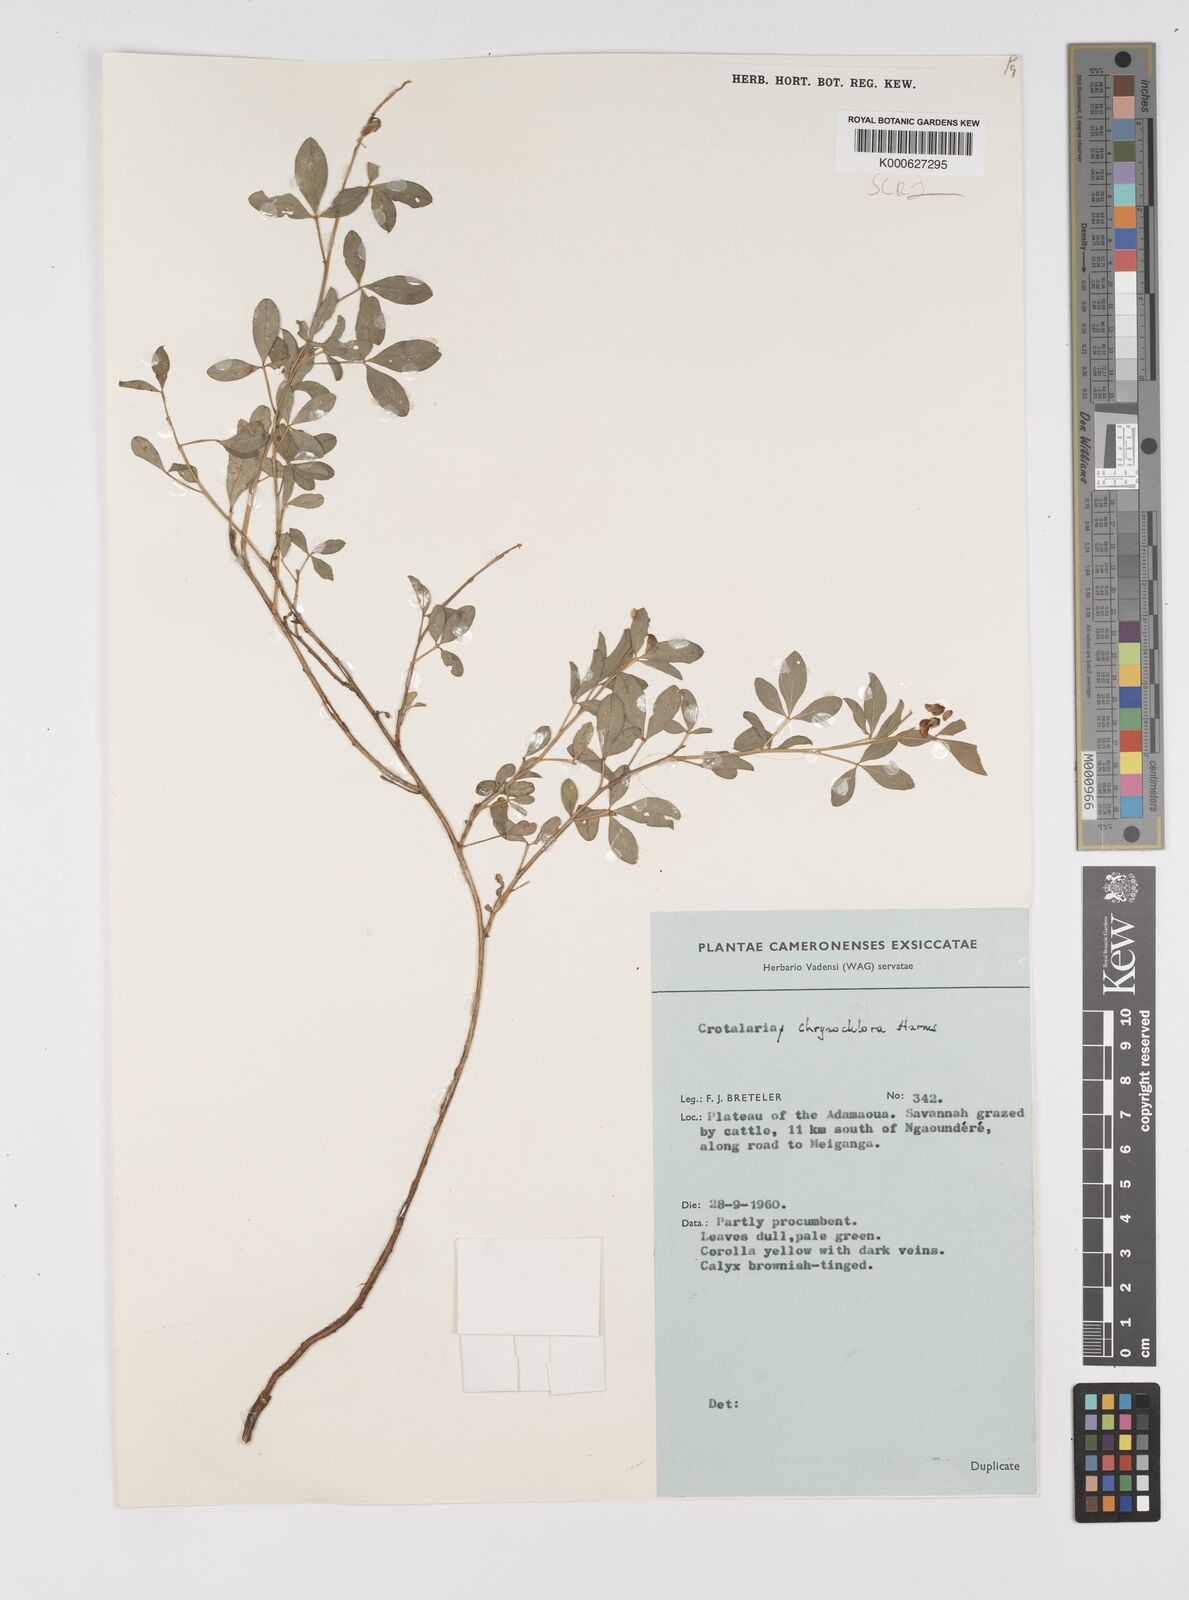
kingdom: Plantae
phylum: Tracheophyta
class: Magnoliopsida
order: Fabales
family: Fabaceae
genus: Crotalaria
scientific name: Crotalaria chrysochlora ex
